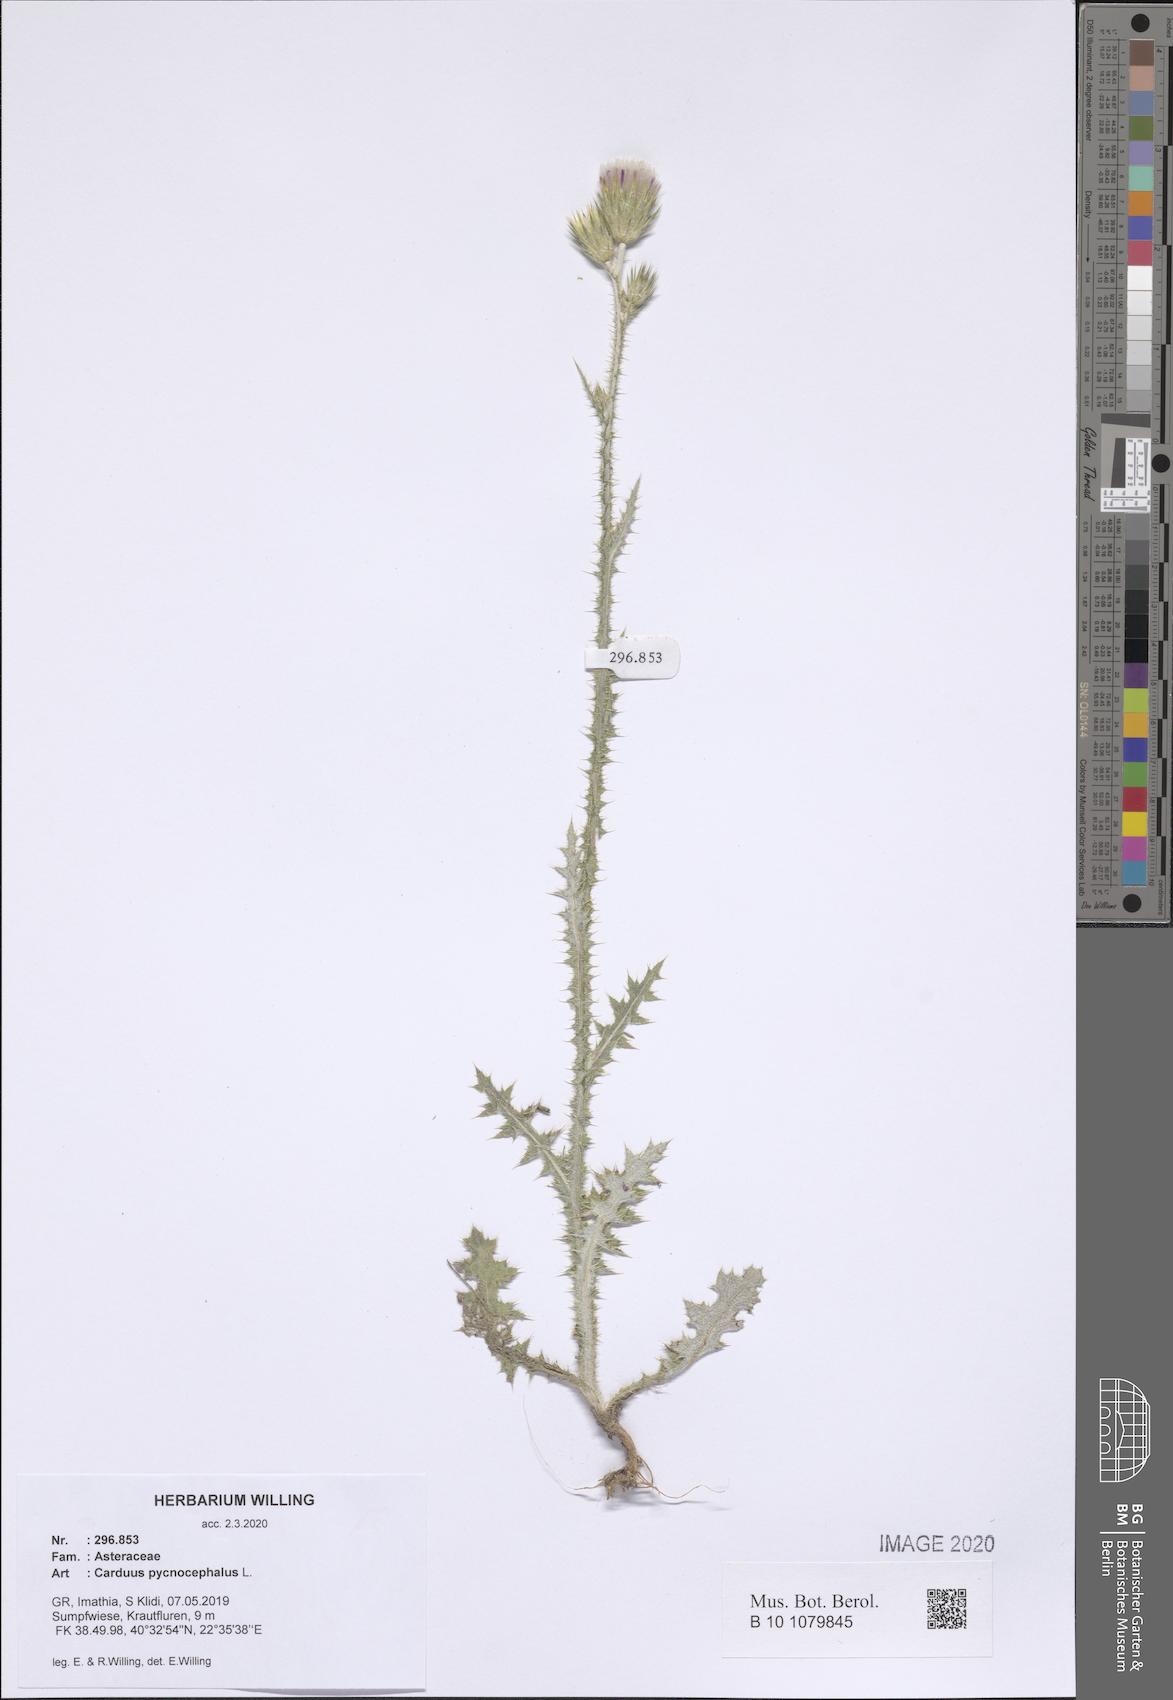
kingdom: Plantae
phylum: Tracheophyta
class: Magnoliopsida
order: Asterales
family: Asteraceae
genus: Carduus
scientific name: Carduus pycnocephalus
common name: Plymouth thistle
